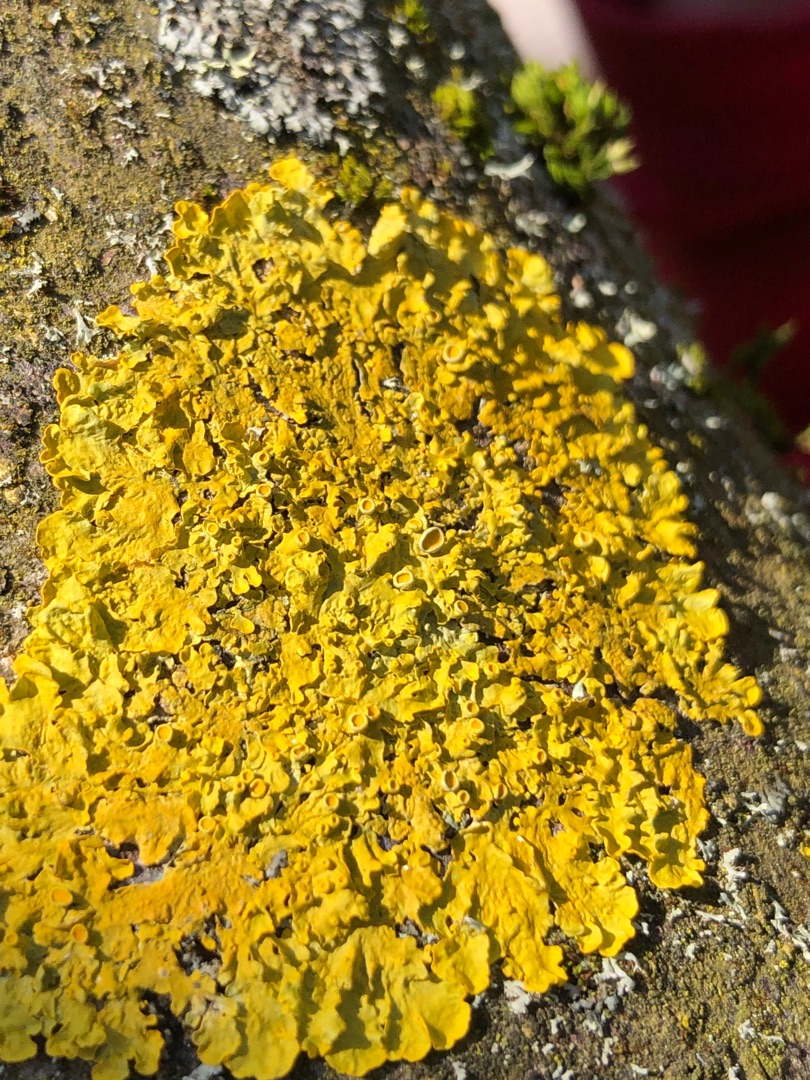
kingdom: Fungi
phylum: Ascomycota
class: Lecanoromycetes
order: Teloschistales
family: Teloschistaceae
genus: Xanthoria
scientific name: Xanthoria parietina
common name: Almindelig væggelav
